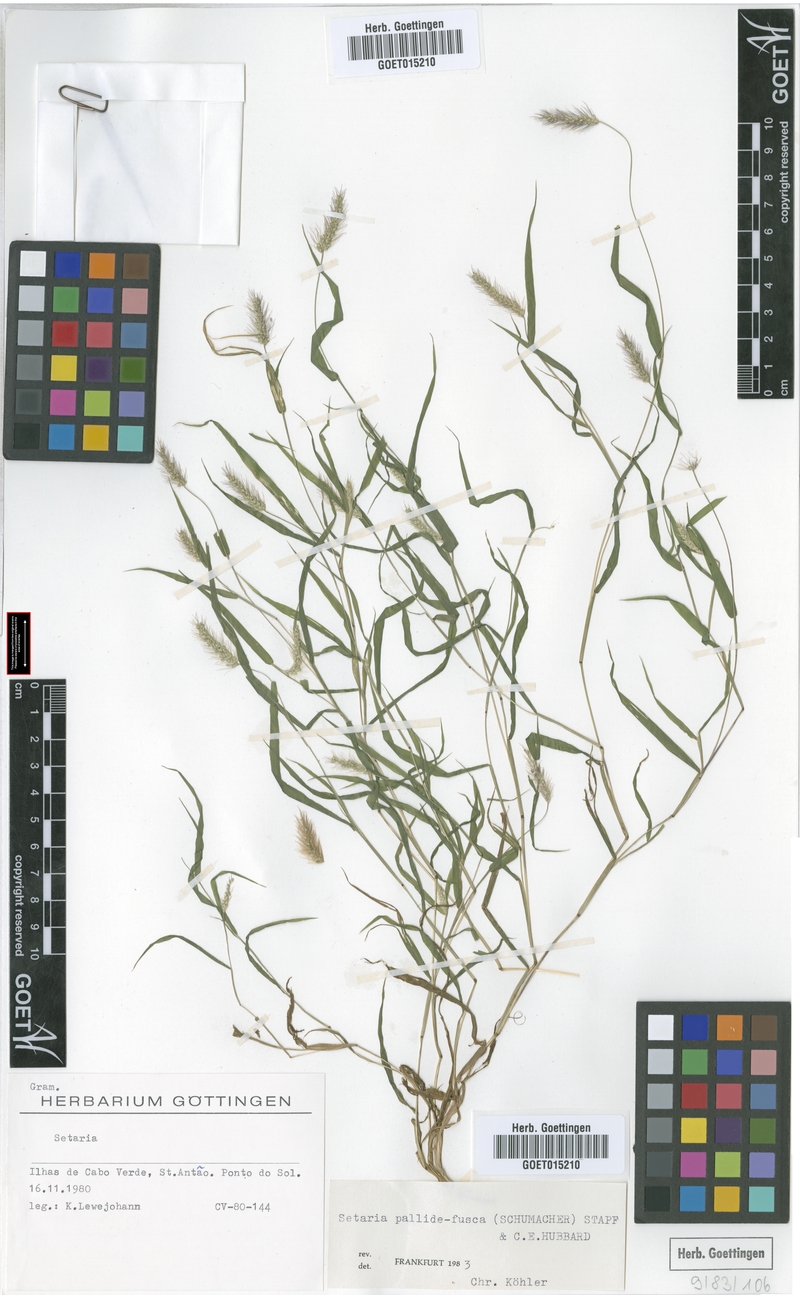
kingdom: Plantae
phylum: Tracheophyta
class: Liliopsida
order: Poales
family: Poaceae
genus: Setaria
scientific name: Setaria pumila
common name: Yellow bristle-grass
